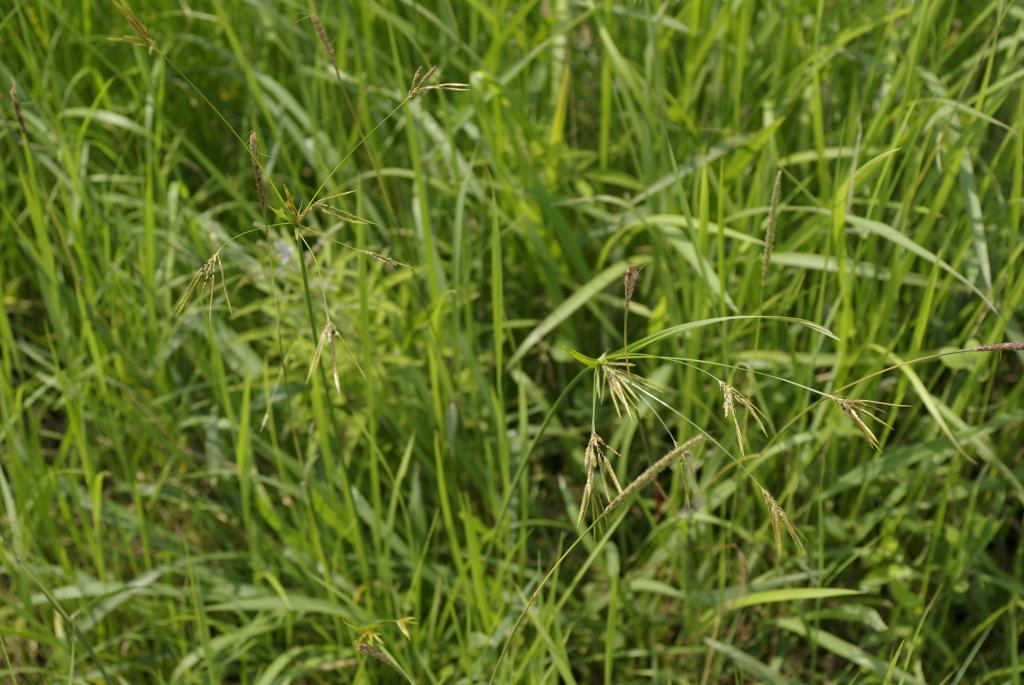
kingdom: Plantae
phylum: Tracheophyta
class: Liliopsida
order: Poales
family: Cyperaceae
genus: Cyperus
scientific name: Cyperus tenuiculmis
